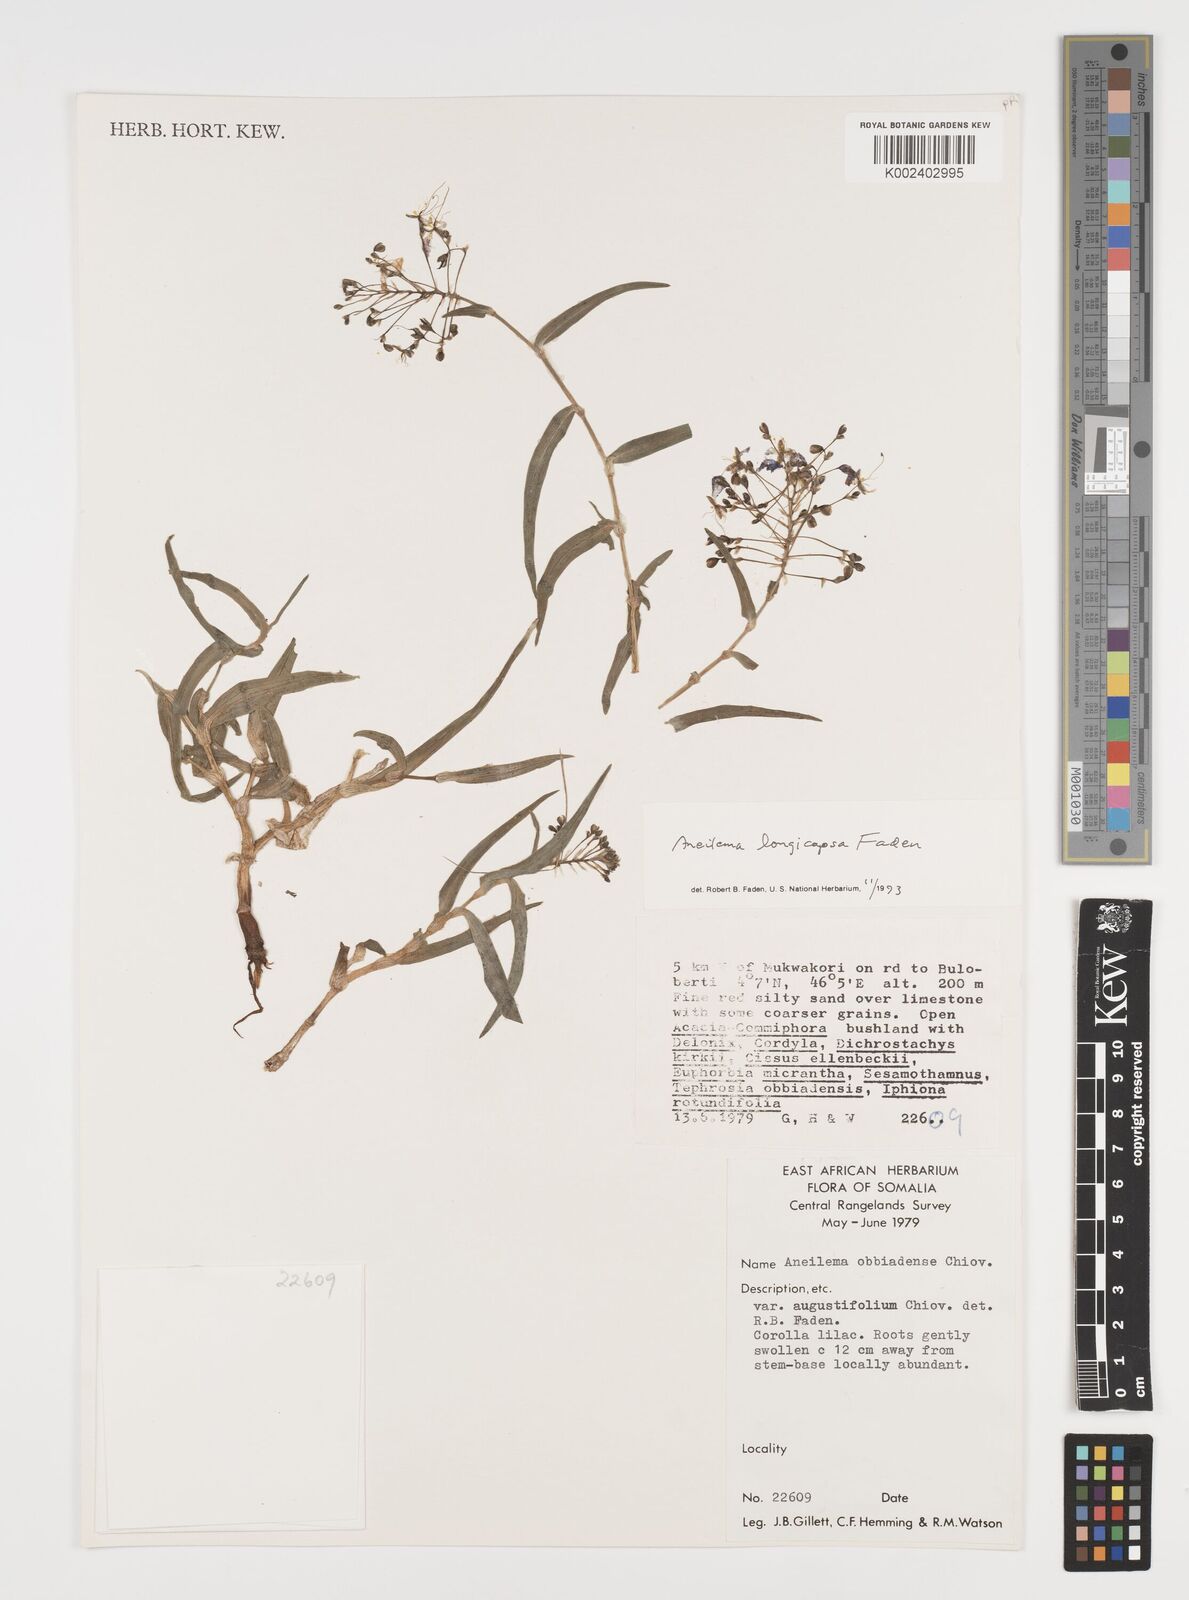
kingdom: Plantae
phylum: Tracheophyta
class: Liliopsida
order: Commelinales
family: Commelinaceae
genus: Aneilema
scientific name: Aneilema longicapsa
